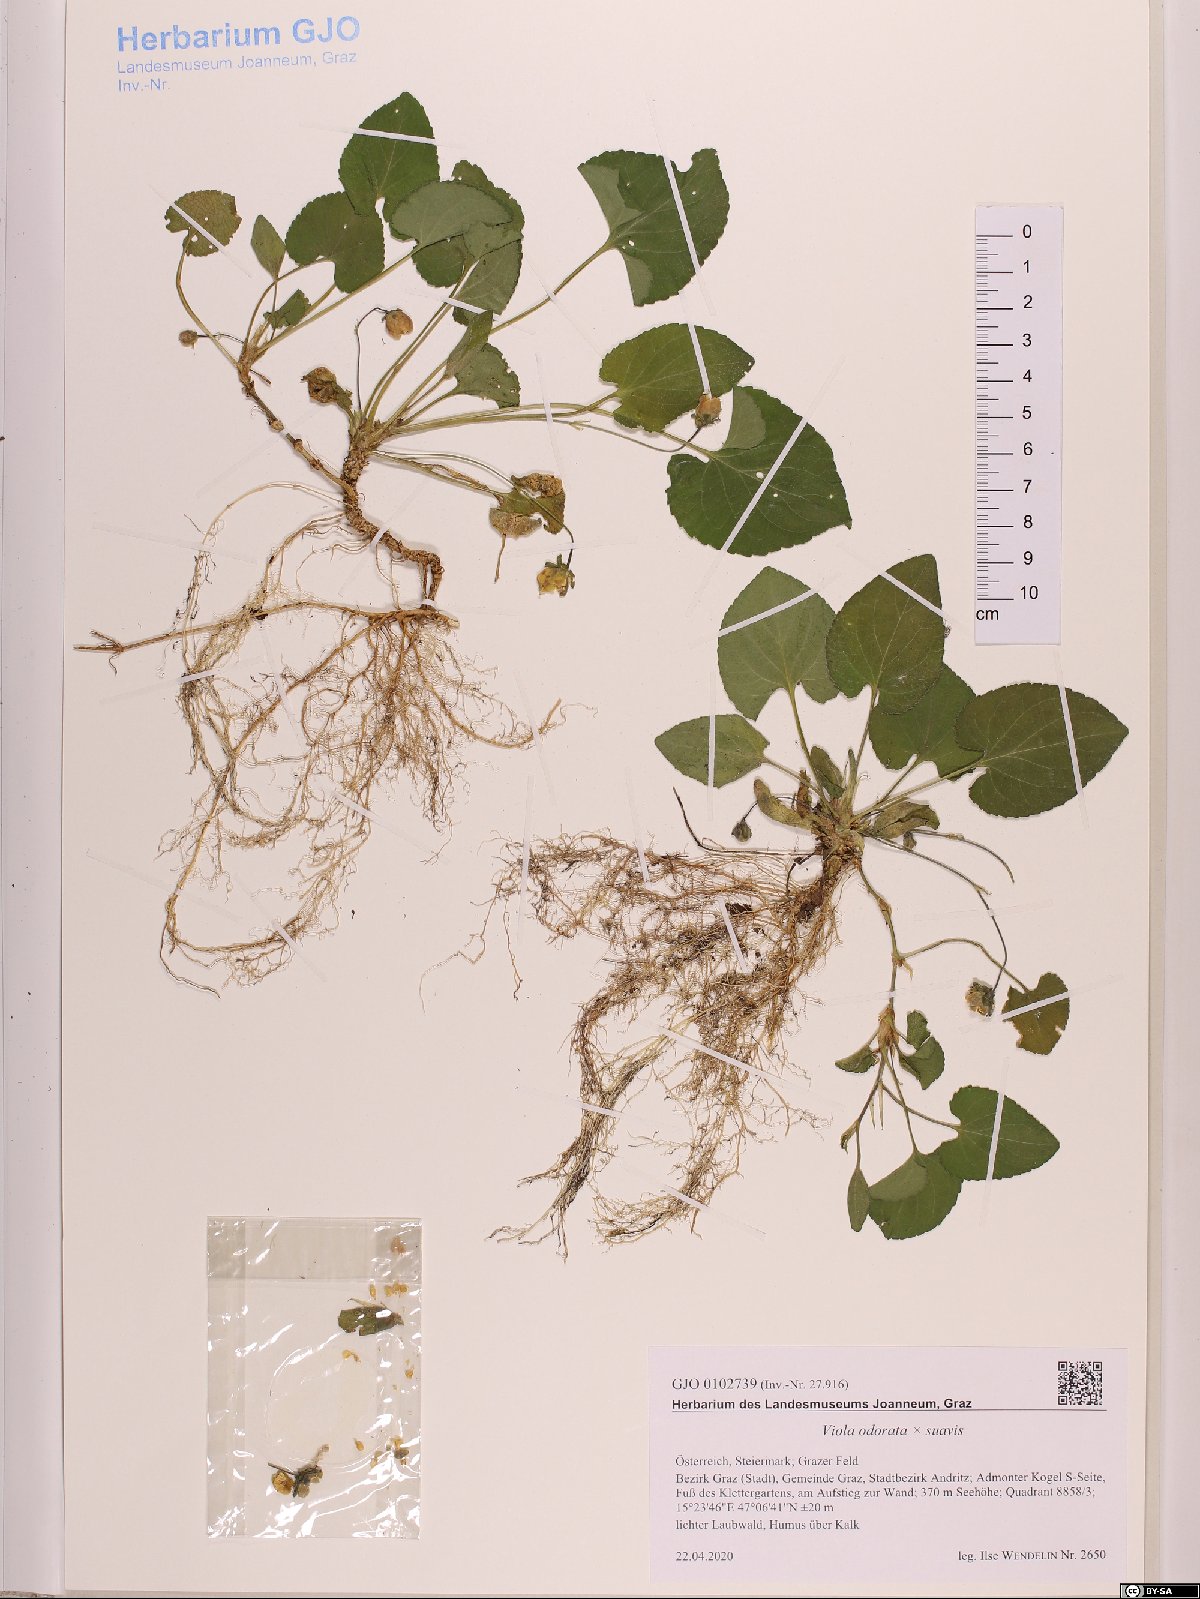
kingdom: Plantae
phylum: Tracheophyta
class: Magnoliopsida
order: Malpighiales
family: Violaceae
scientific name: Violaceae
